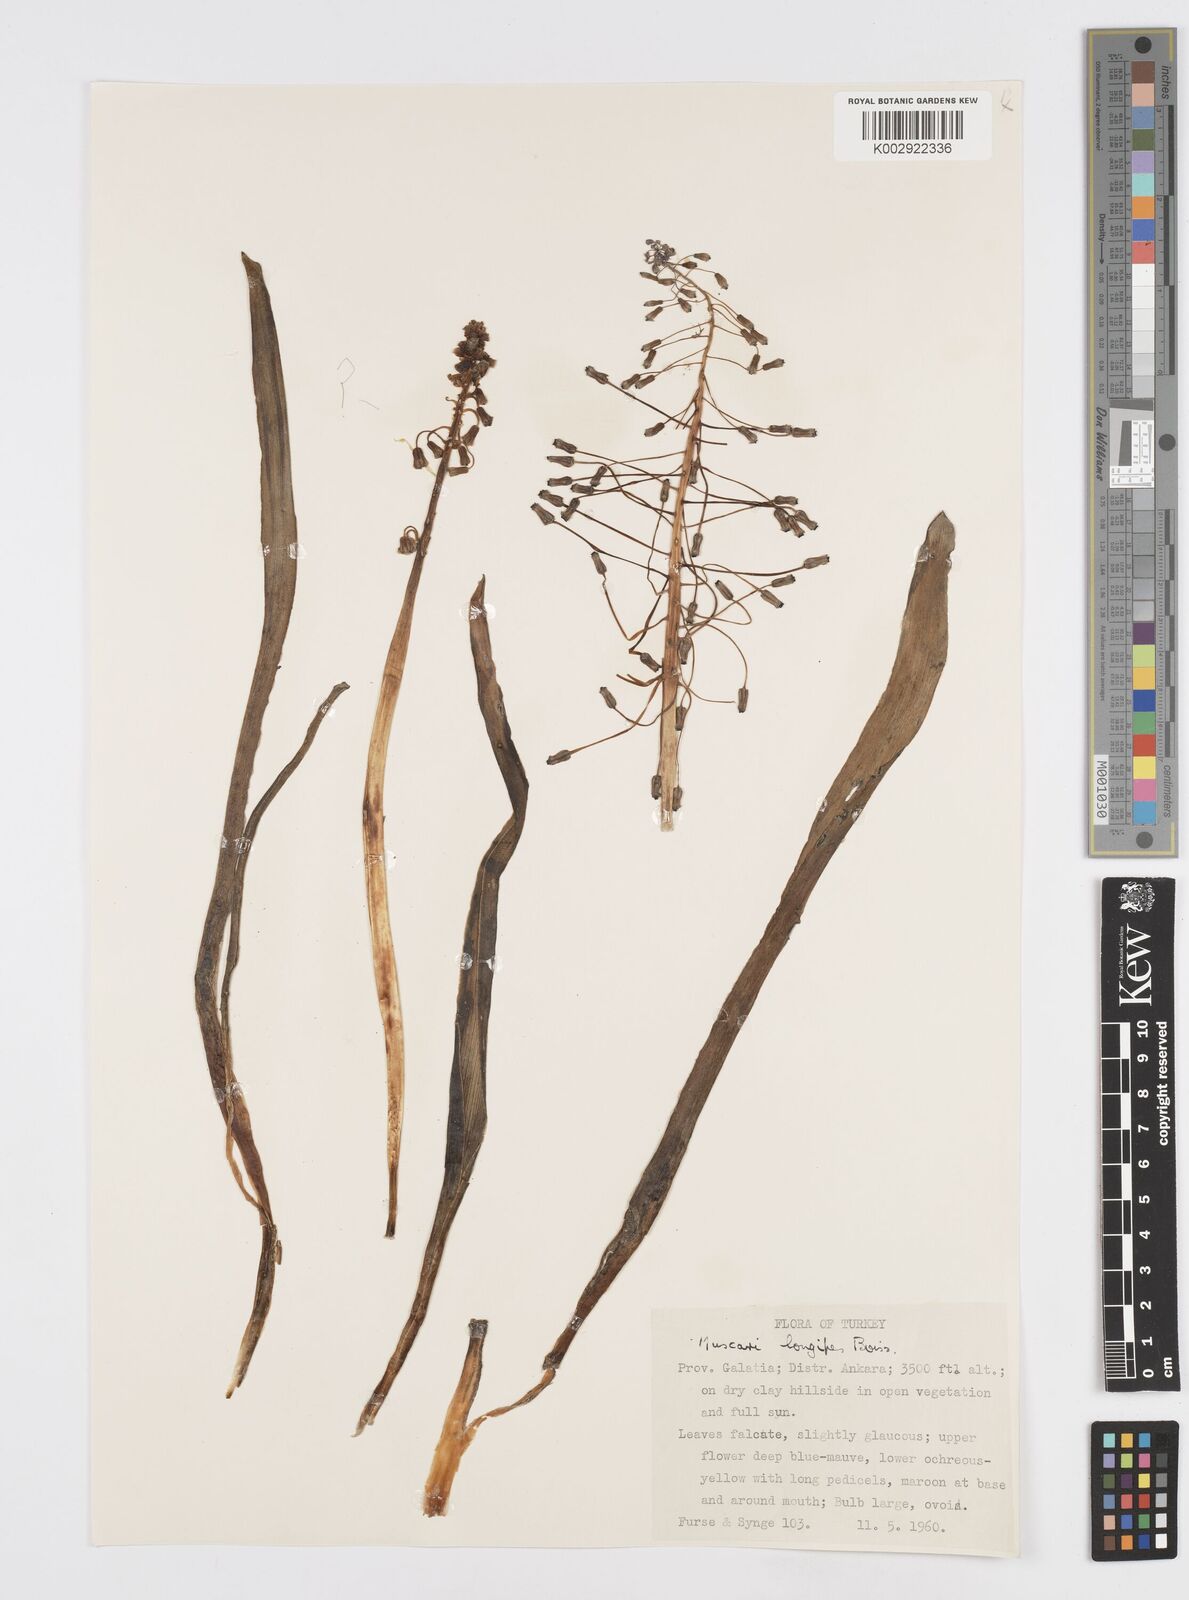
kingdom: Plantae
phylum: Tracheophyta
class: Liliopsida
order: Asparagales
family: Asparagaceae
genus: Muscari
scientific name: Muscari longipes
